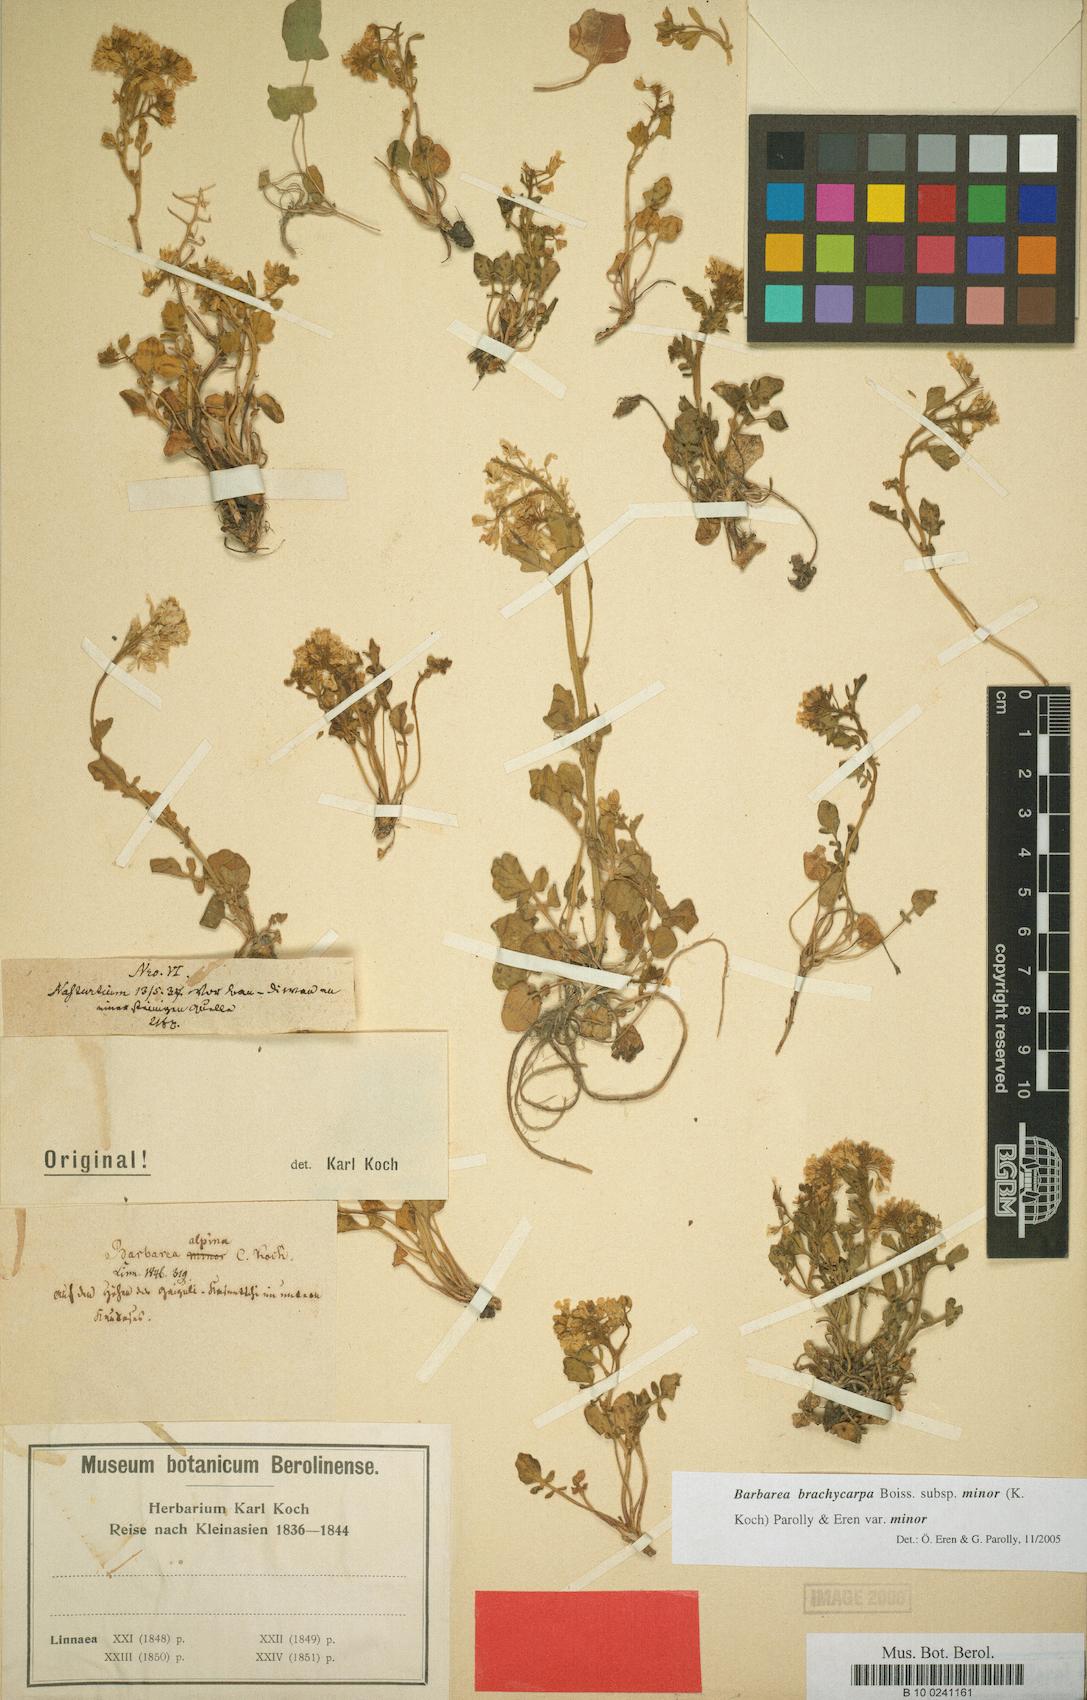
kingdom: Plantae
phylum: Tracheophyta
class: Magnoliopsida
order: Brassicales
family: Brassicaceae
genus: Barbarea
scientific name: Barbarea brachycarpa
